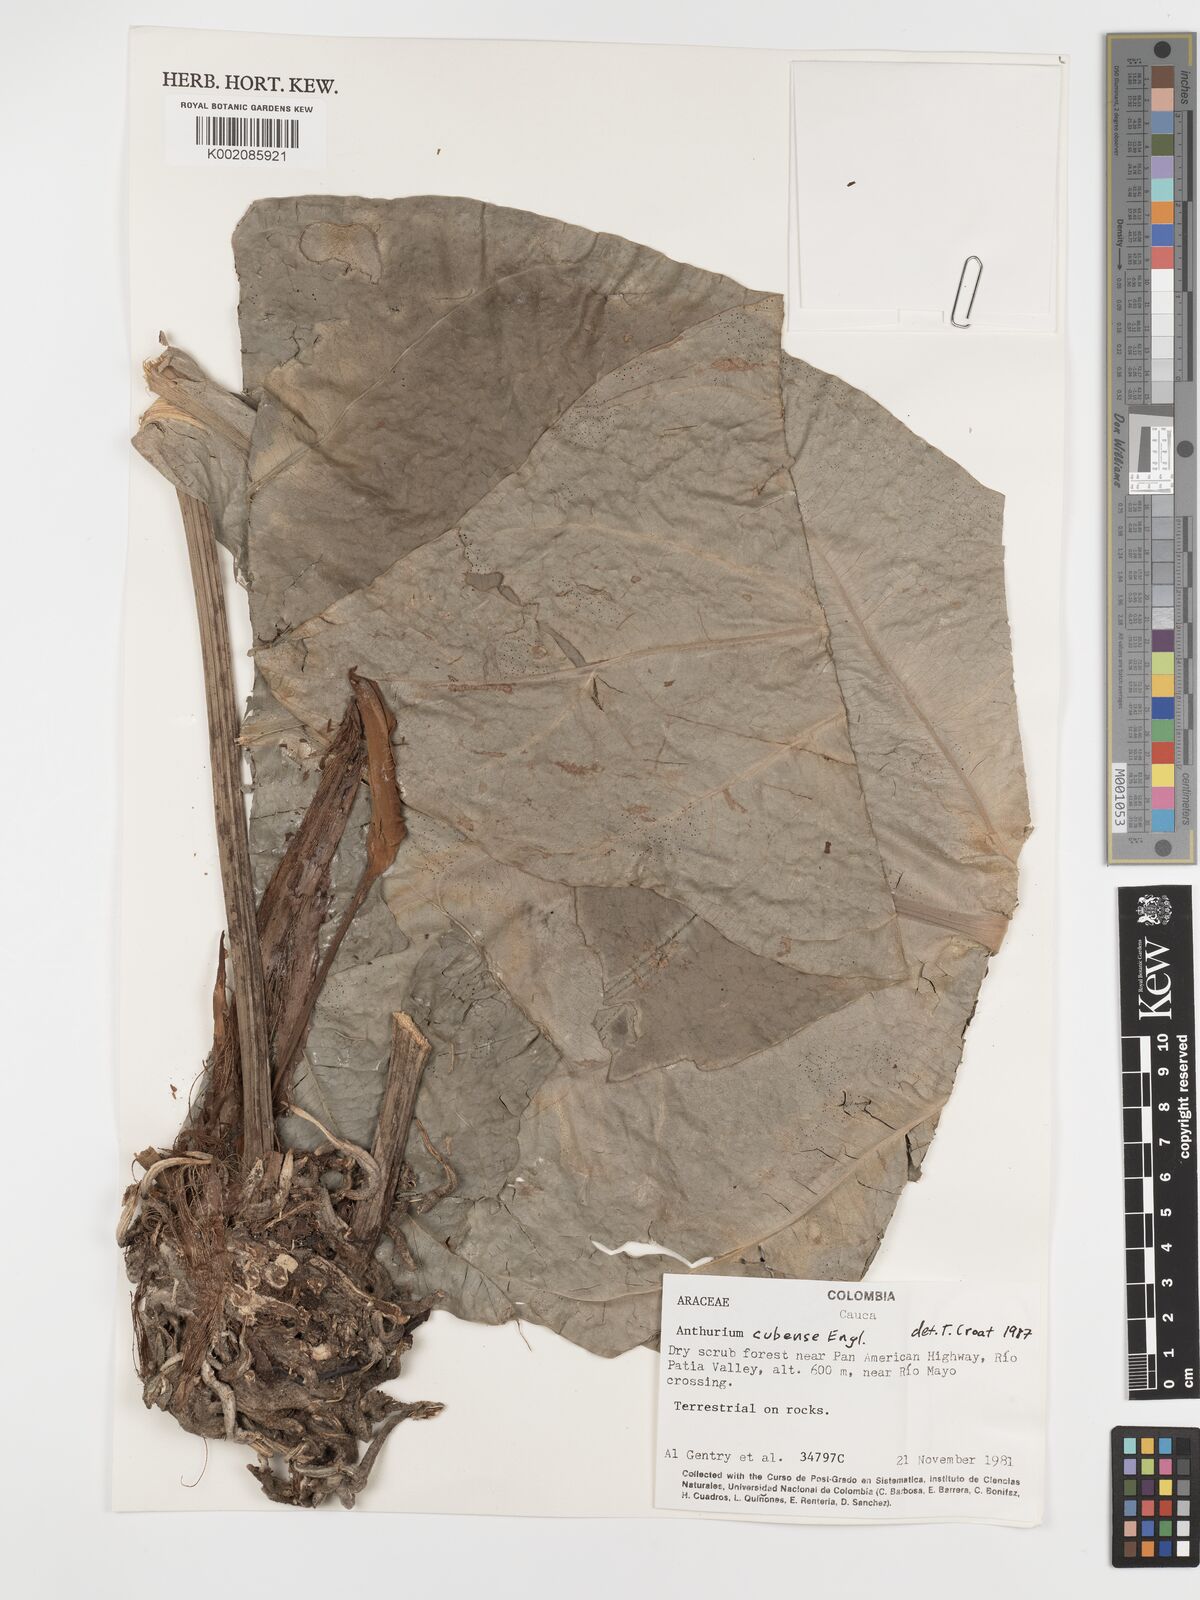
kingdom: Plantae
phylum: Tracheophyta
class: Liliopsida
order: Alismatales
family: Araceae
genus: Anthurium
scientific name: Anthurium cubense
